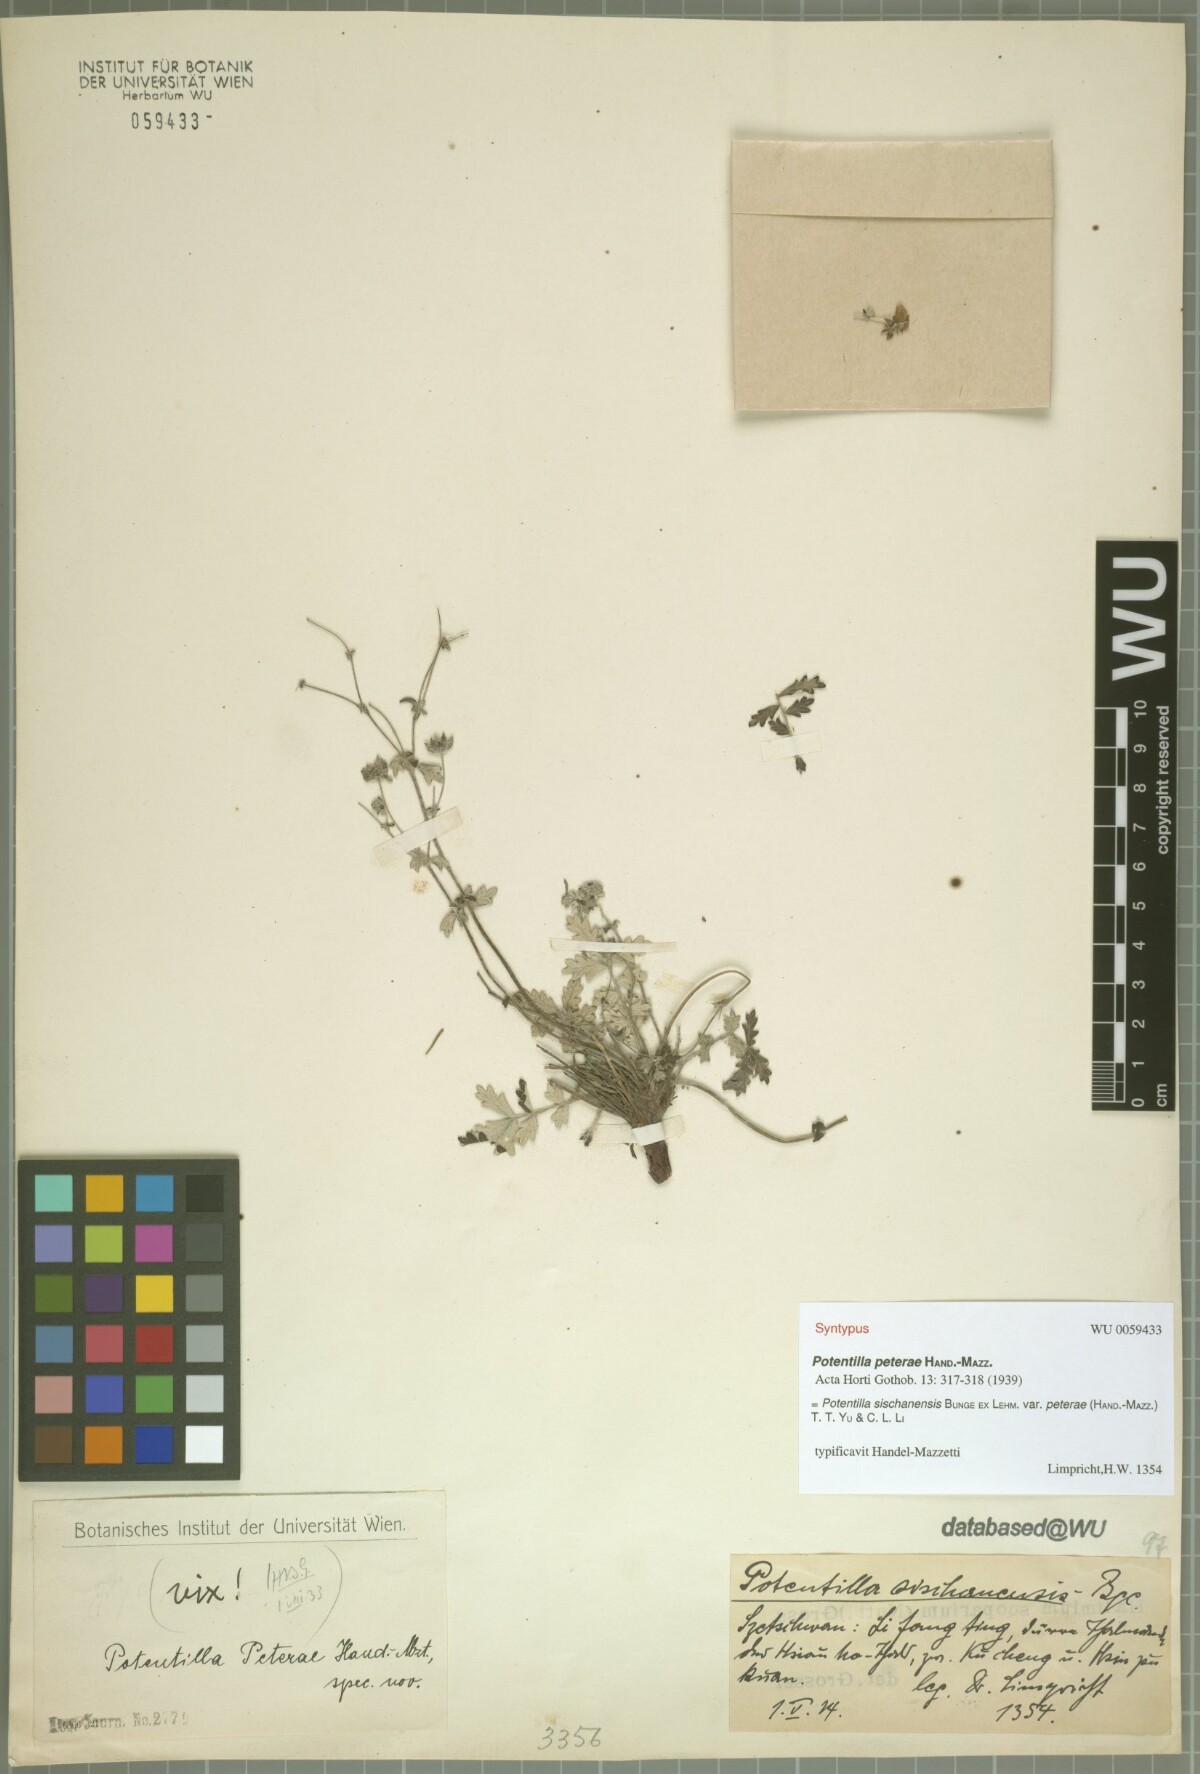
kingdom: Plantae
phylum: Tracheophyta
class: Magnoliopsida
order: Rosales
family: Rosaceae
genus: Potentilla
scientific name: Potentilla sischanensis
